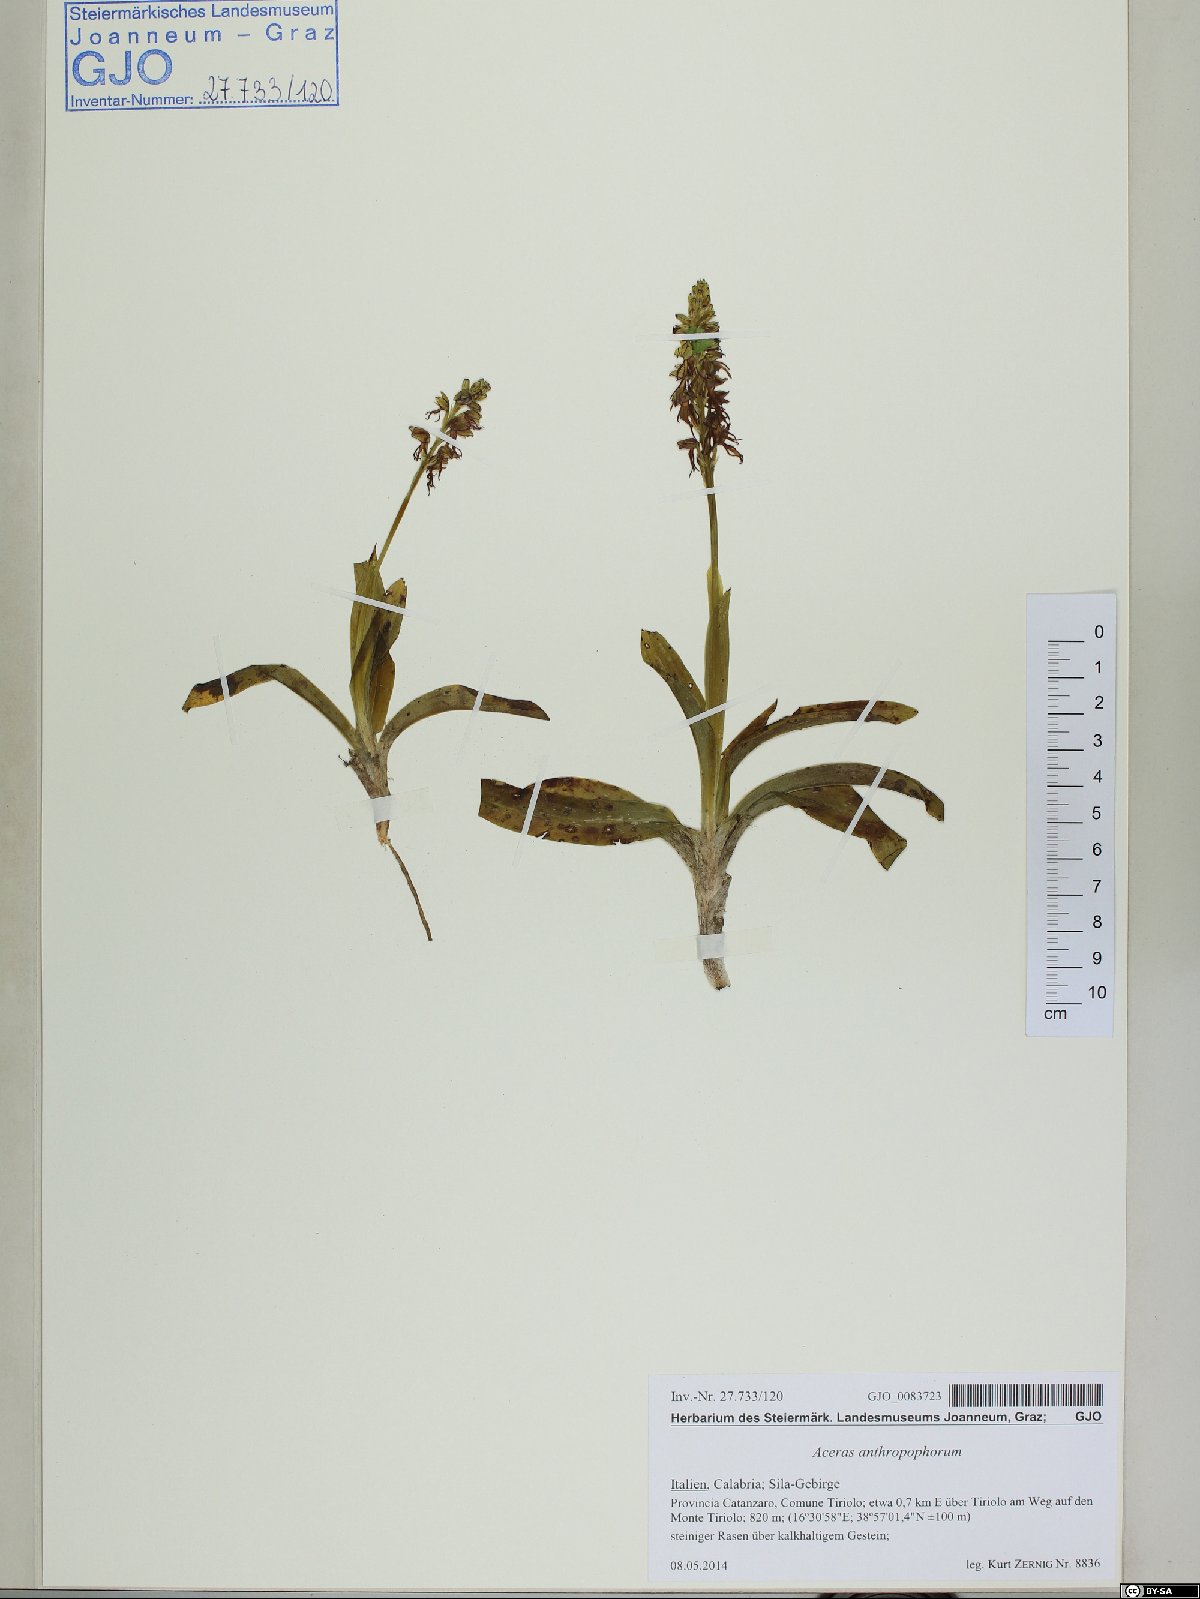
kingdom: Plantae
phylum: Tracheophyta
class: Liliopsida
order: Asparagales
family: Orchidaceae
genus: Orchis
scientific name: Orchis anthropophora
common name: Man orchid
